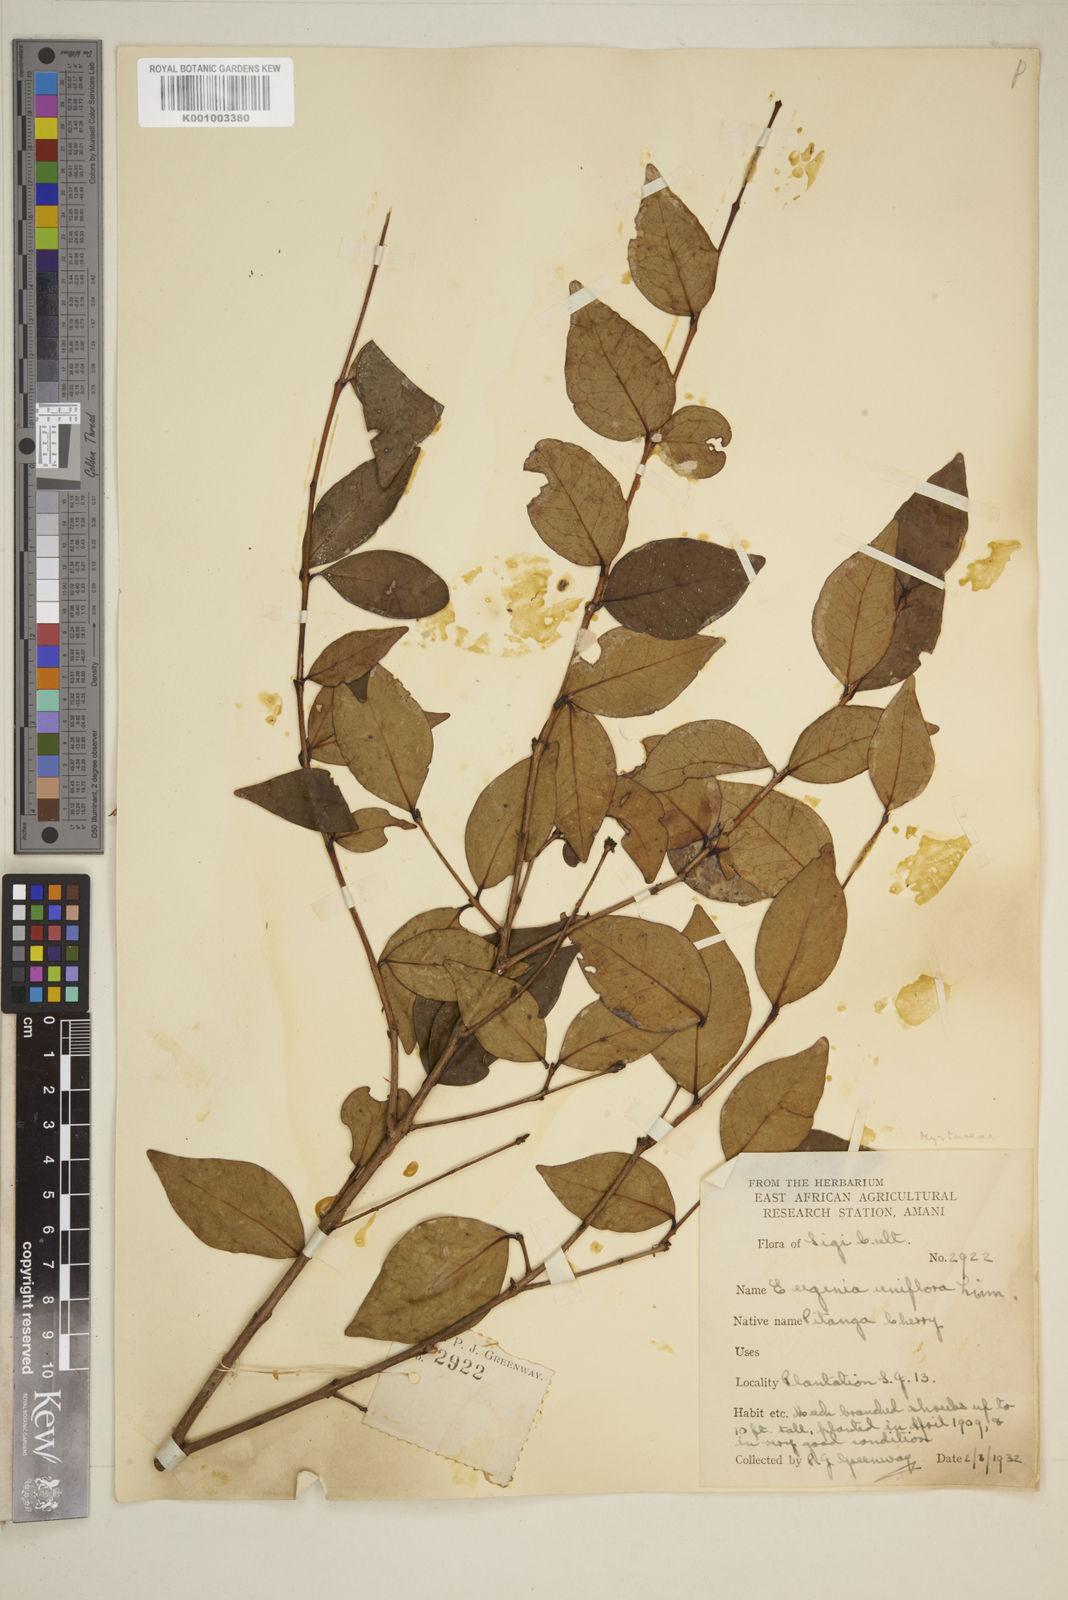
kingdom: Plantae
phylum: Tracheophyta
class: Magnoliopsida
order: Myrtales
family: Myrtaceae
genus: Eugenia
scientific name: Eugenia uniflora
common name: Surinam cherry
